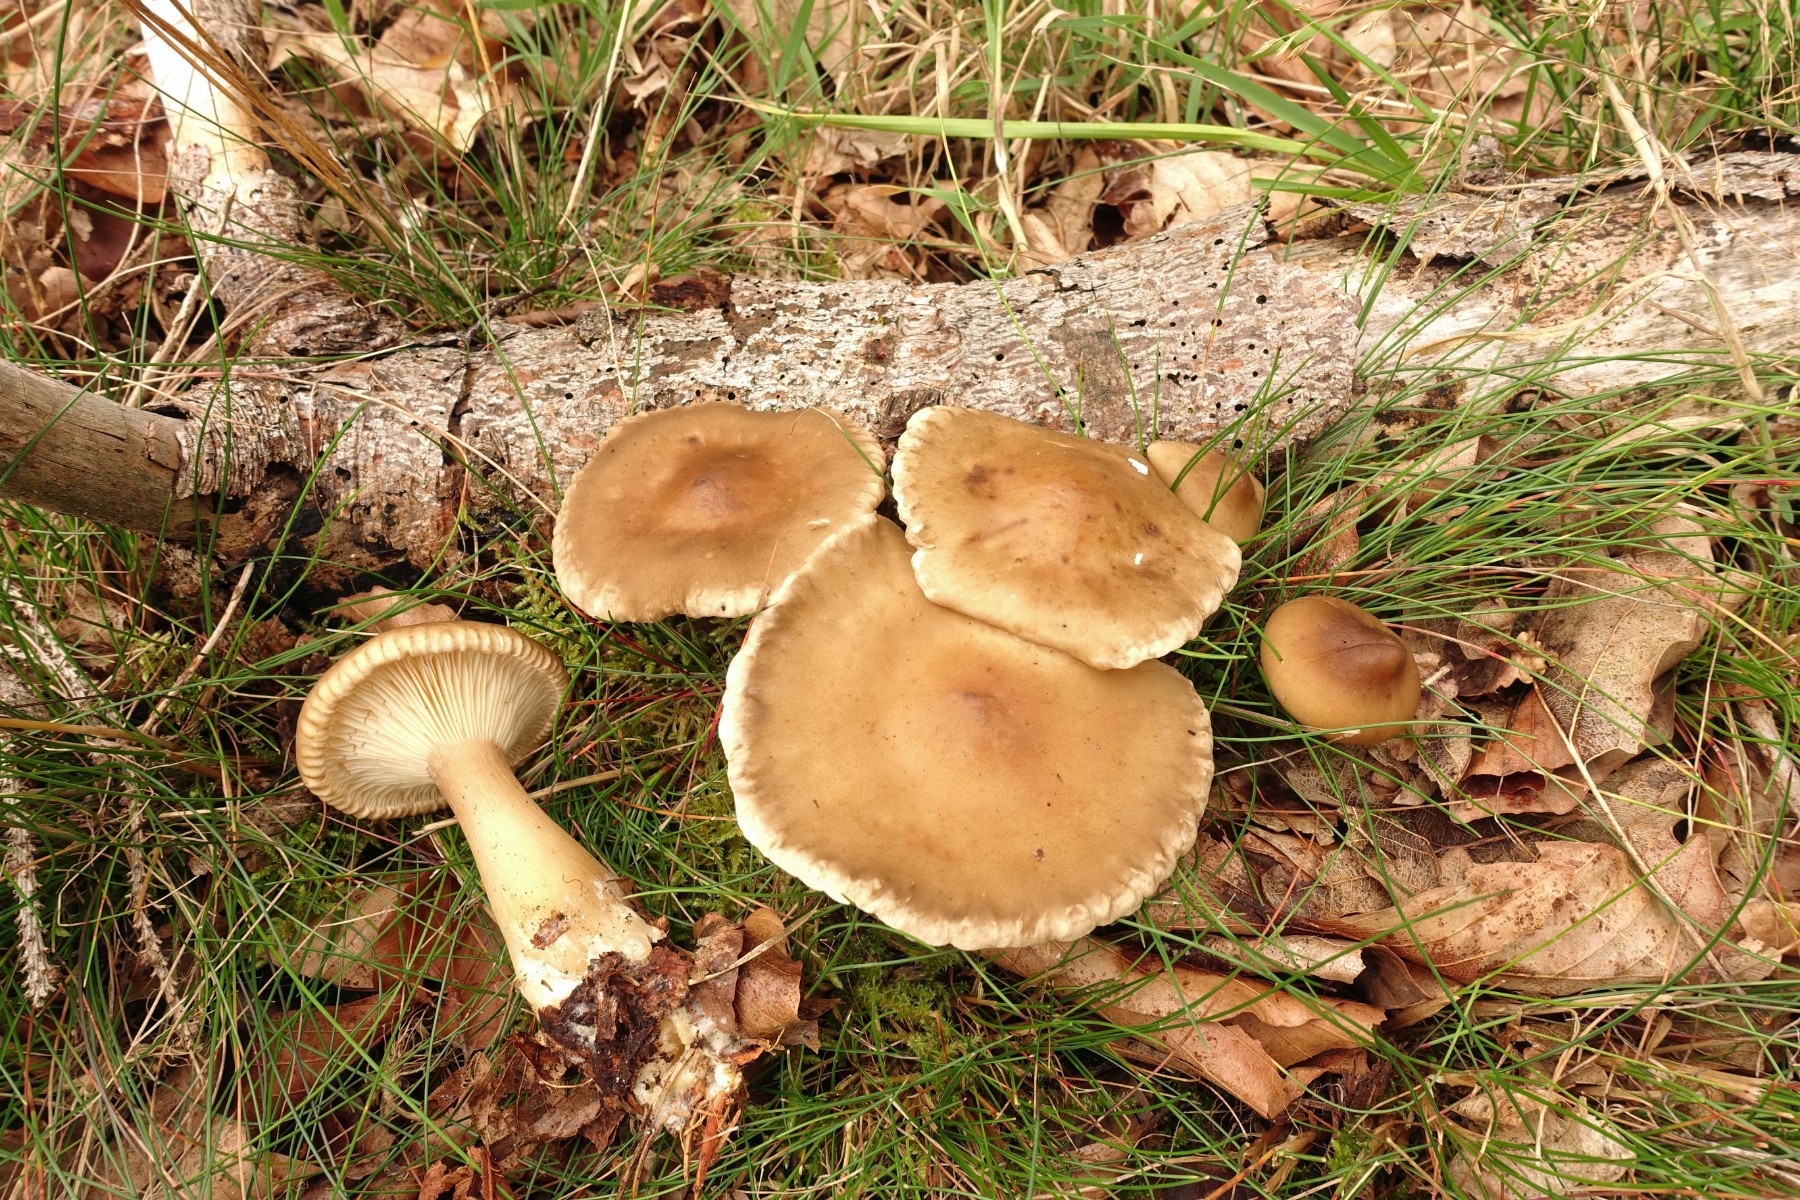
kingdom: Fungi
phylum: Basidiomycota
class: Agaricomycetes
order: Agaricales
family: Hygrophoraceae
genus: Ampulloclitocybe
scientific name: Ampulloclitocybe clavipes
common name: køllefod
